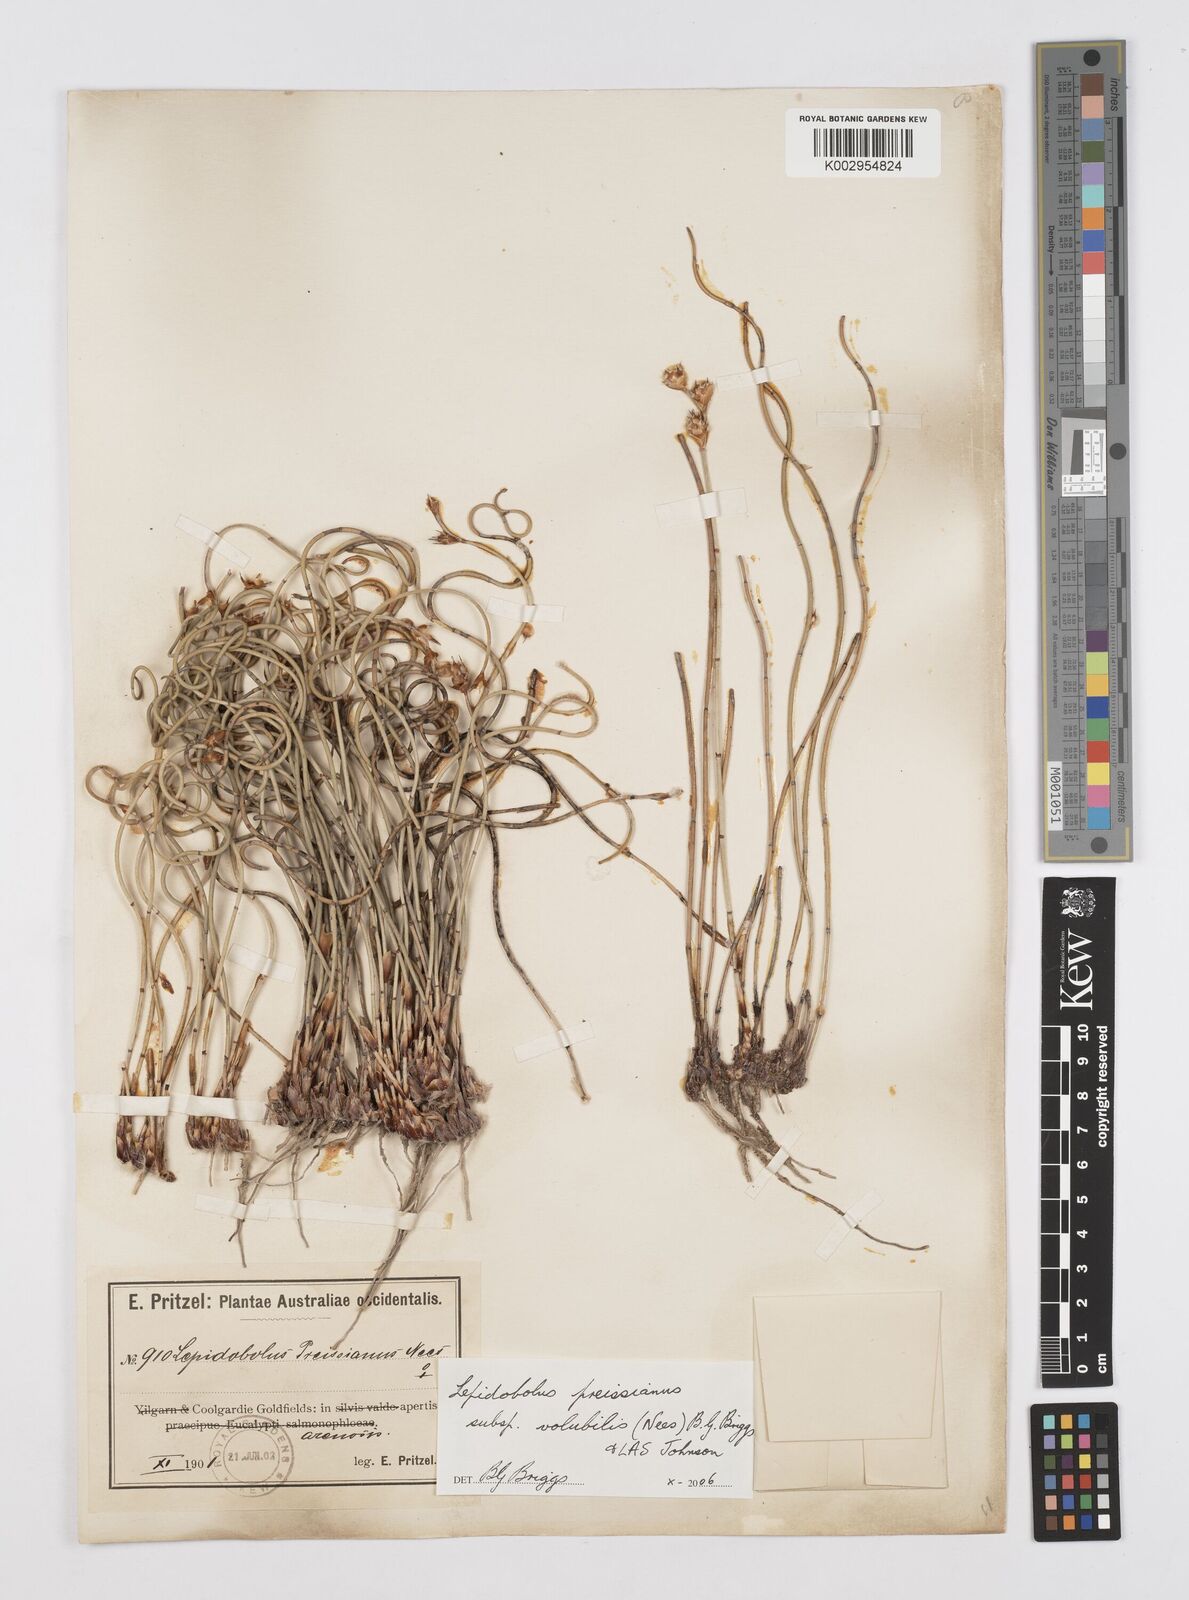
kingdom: Plantae
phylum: Tracheophyta
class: Liliopsida
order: Poales
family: Restionaceae
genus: Lepidobolus
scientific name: Lepidobolus preissianus
